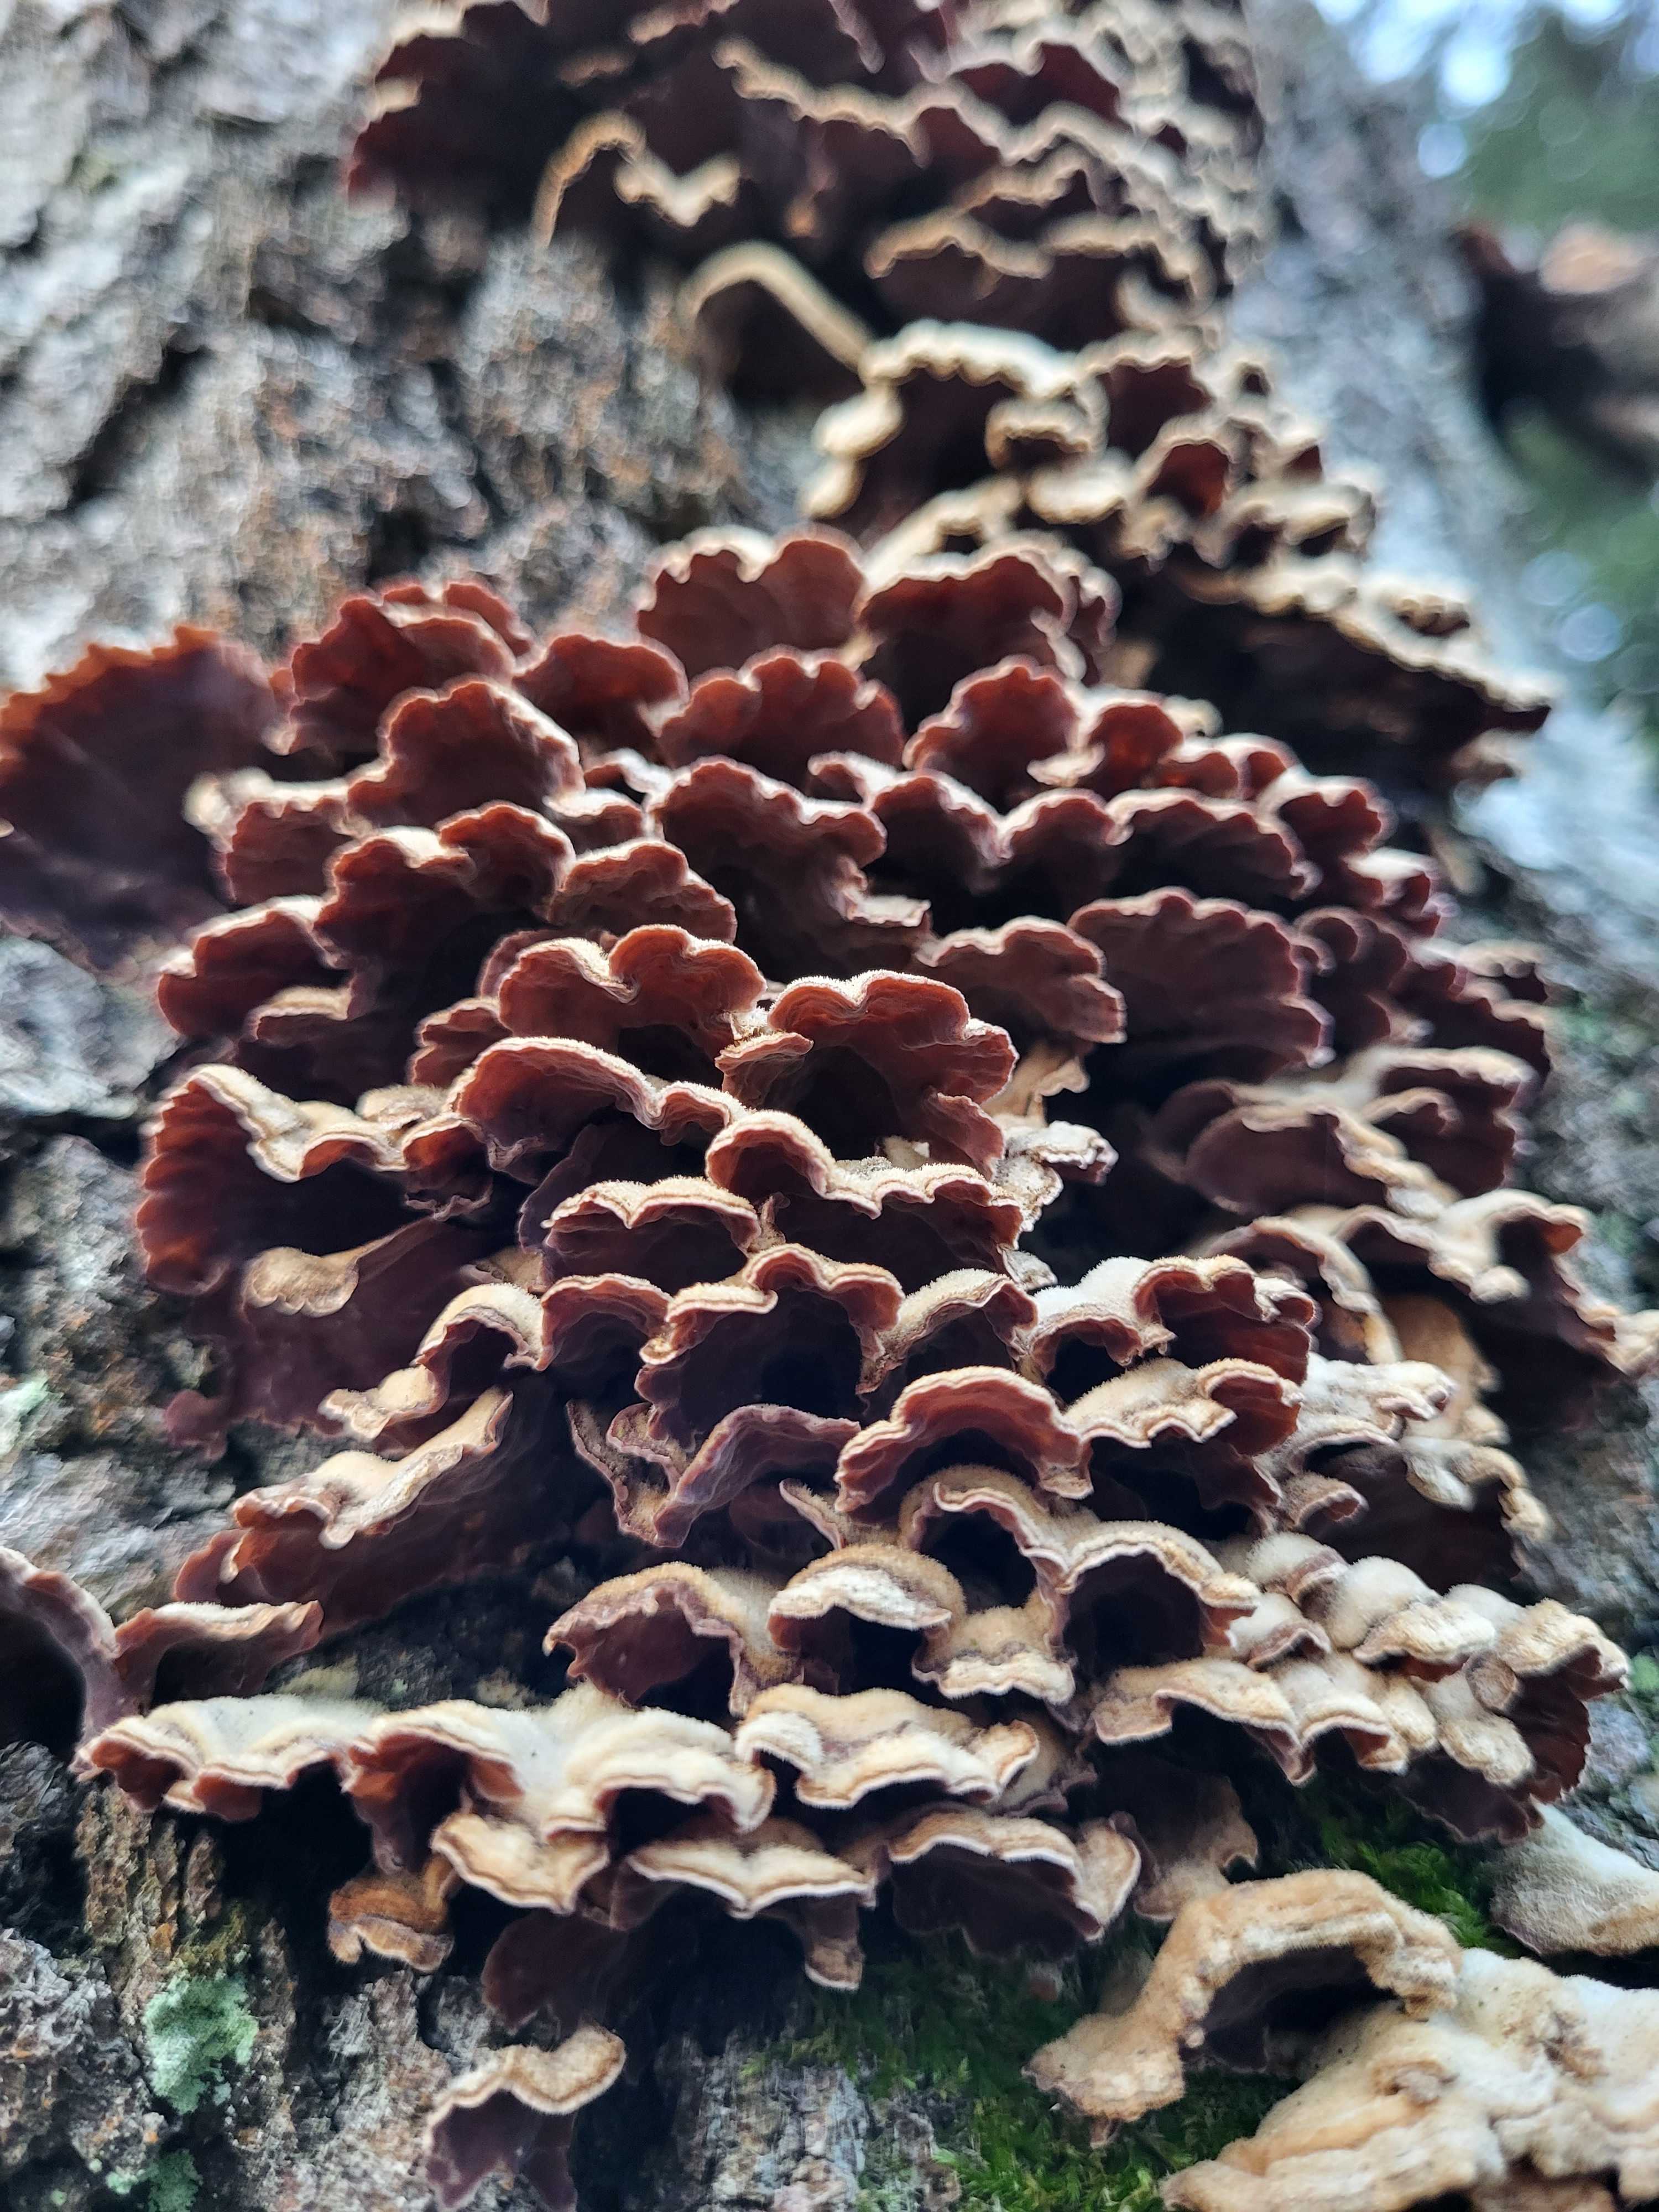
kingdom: Fungi
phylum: Basidiomycota
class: Agaricomycetes
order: Russulales
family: Stereaceae
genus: Stereum
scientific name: Stereum hirsutum
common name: håret lædersvamp
